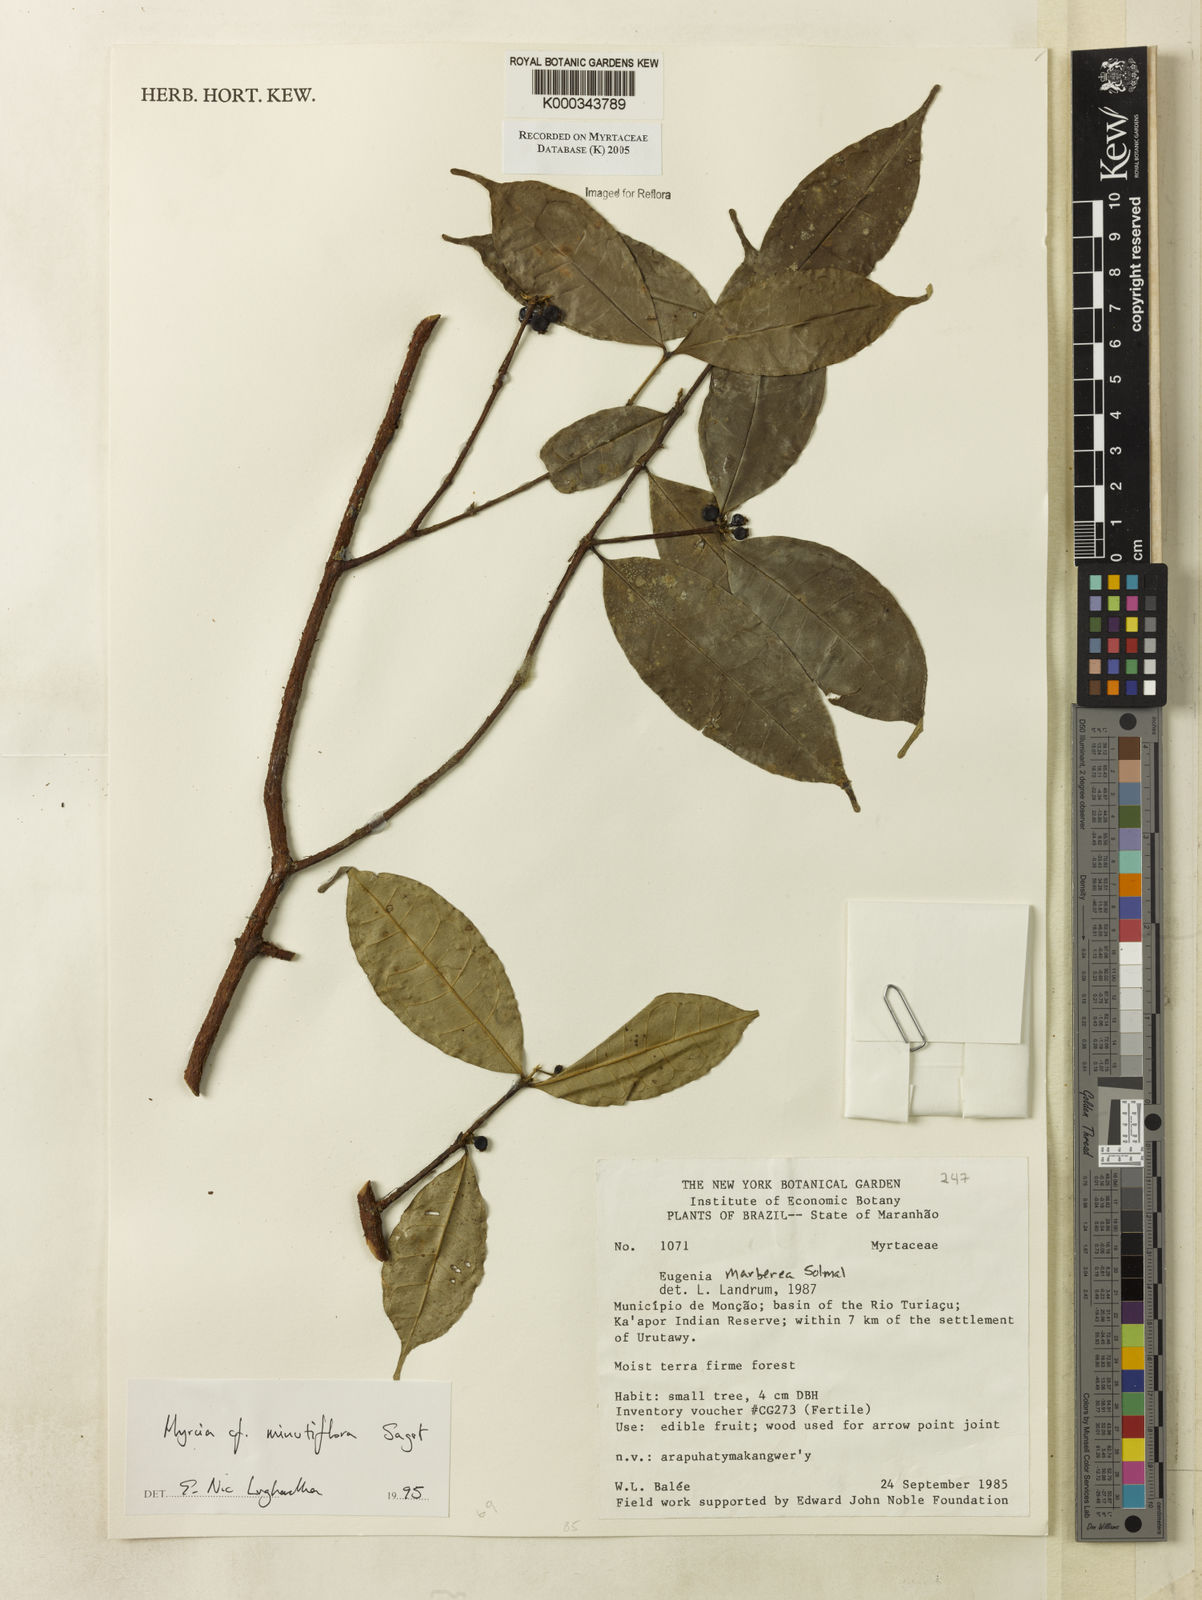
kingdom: Plantae
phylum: Tracheophyta
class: Magnoliopsida
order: Myrtales
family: Myrtaceae
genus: Myrcia
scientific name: Myrcia minutiflora
